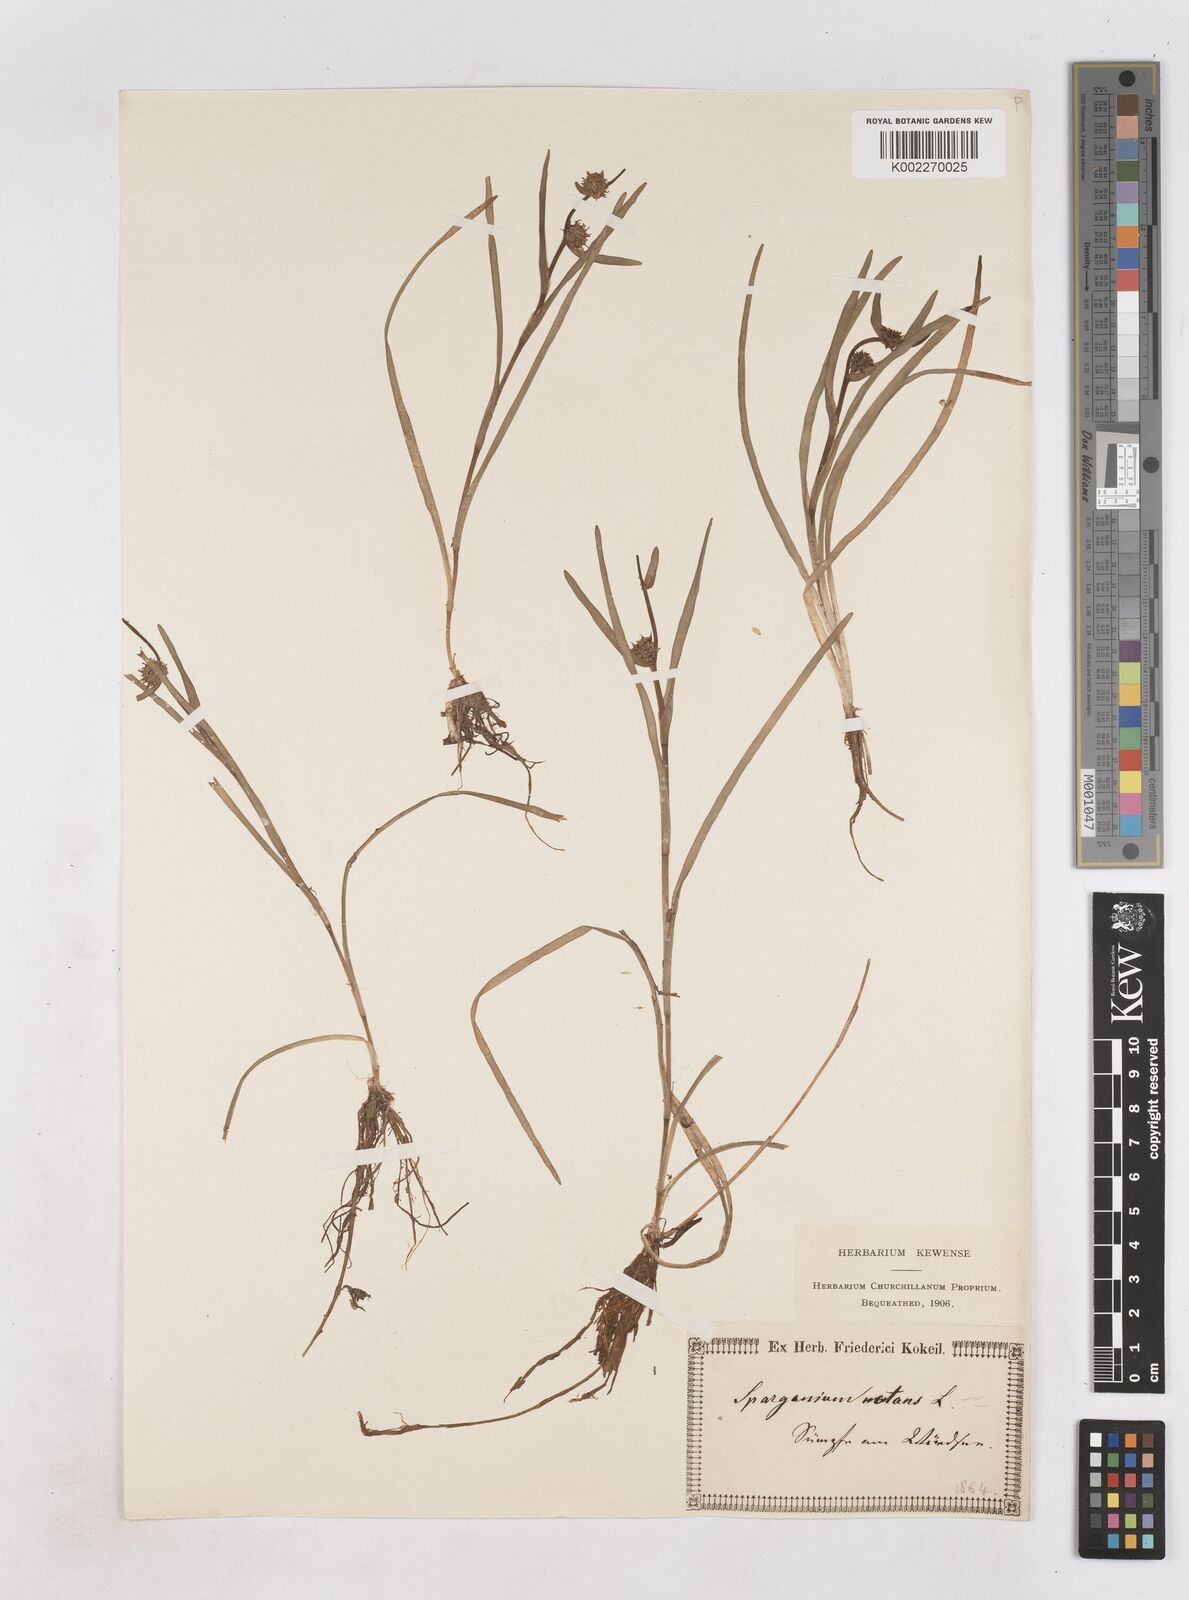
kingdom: Plantae
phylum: Tracheophyta
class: Liliopsida
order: Poales
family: Typhaceae
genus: Sparganium
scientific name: Sparganium gramineum
